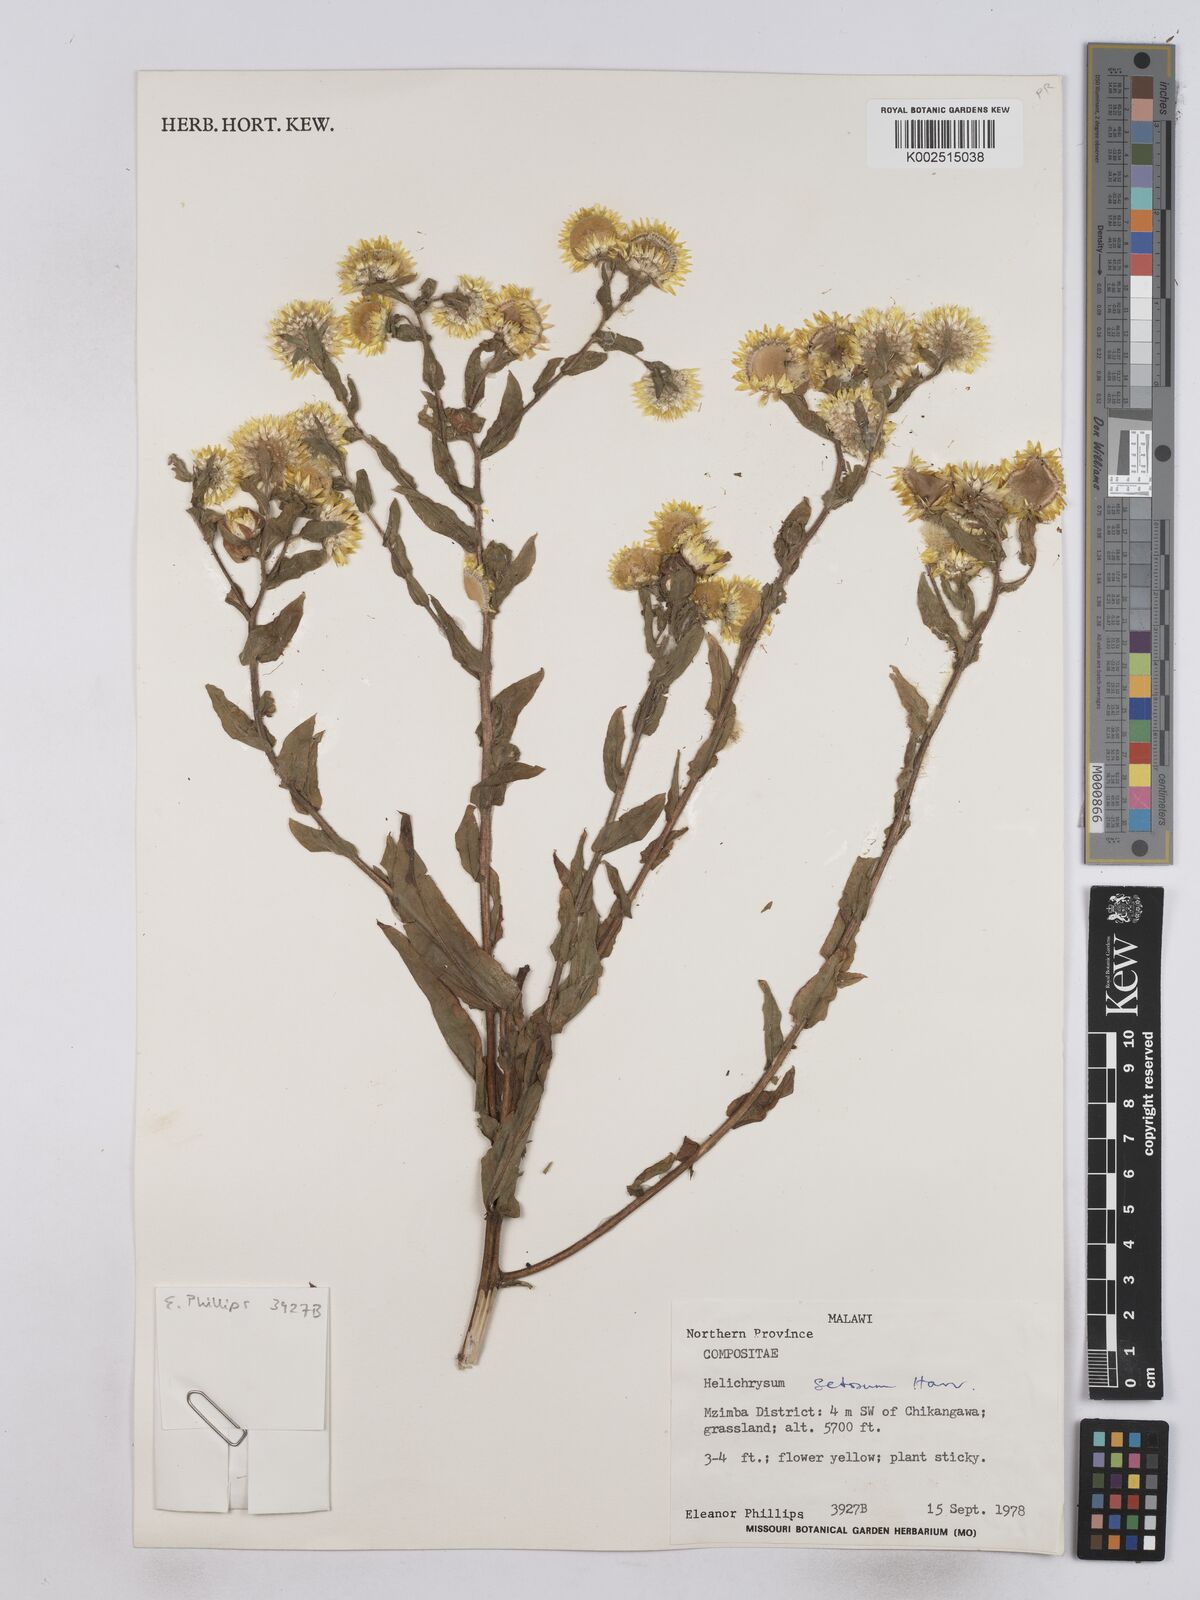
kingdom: Plantae
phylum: Tracheophyta
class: Magnoliopsida
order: Asterales
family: Asteraceae
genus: Helichrysum
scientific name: Helichrysum setosum
